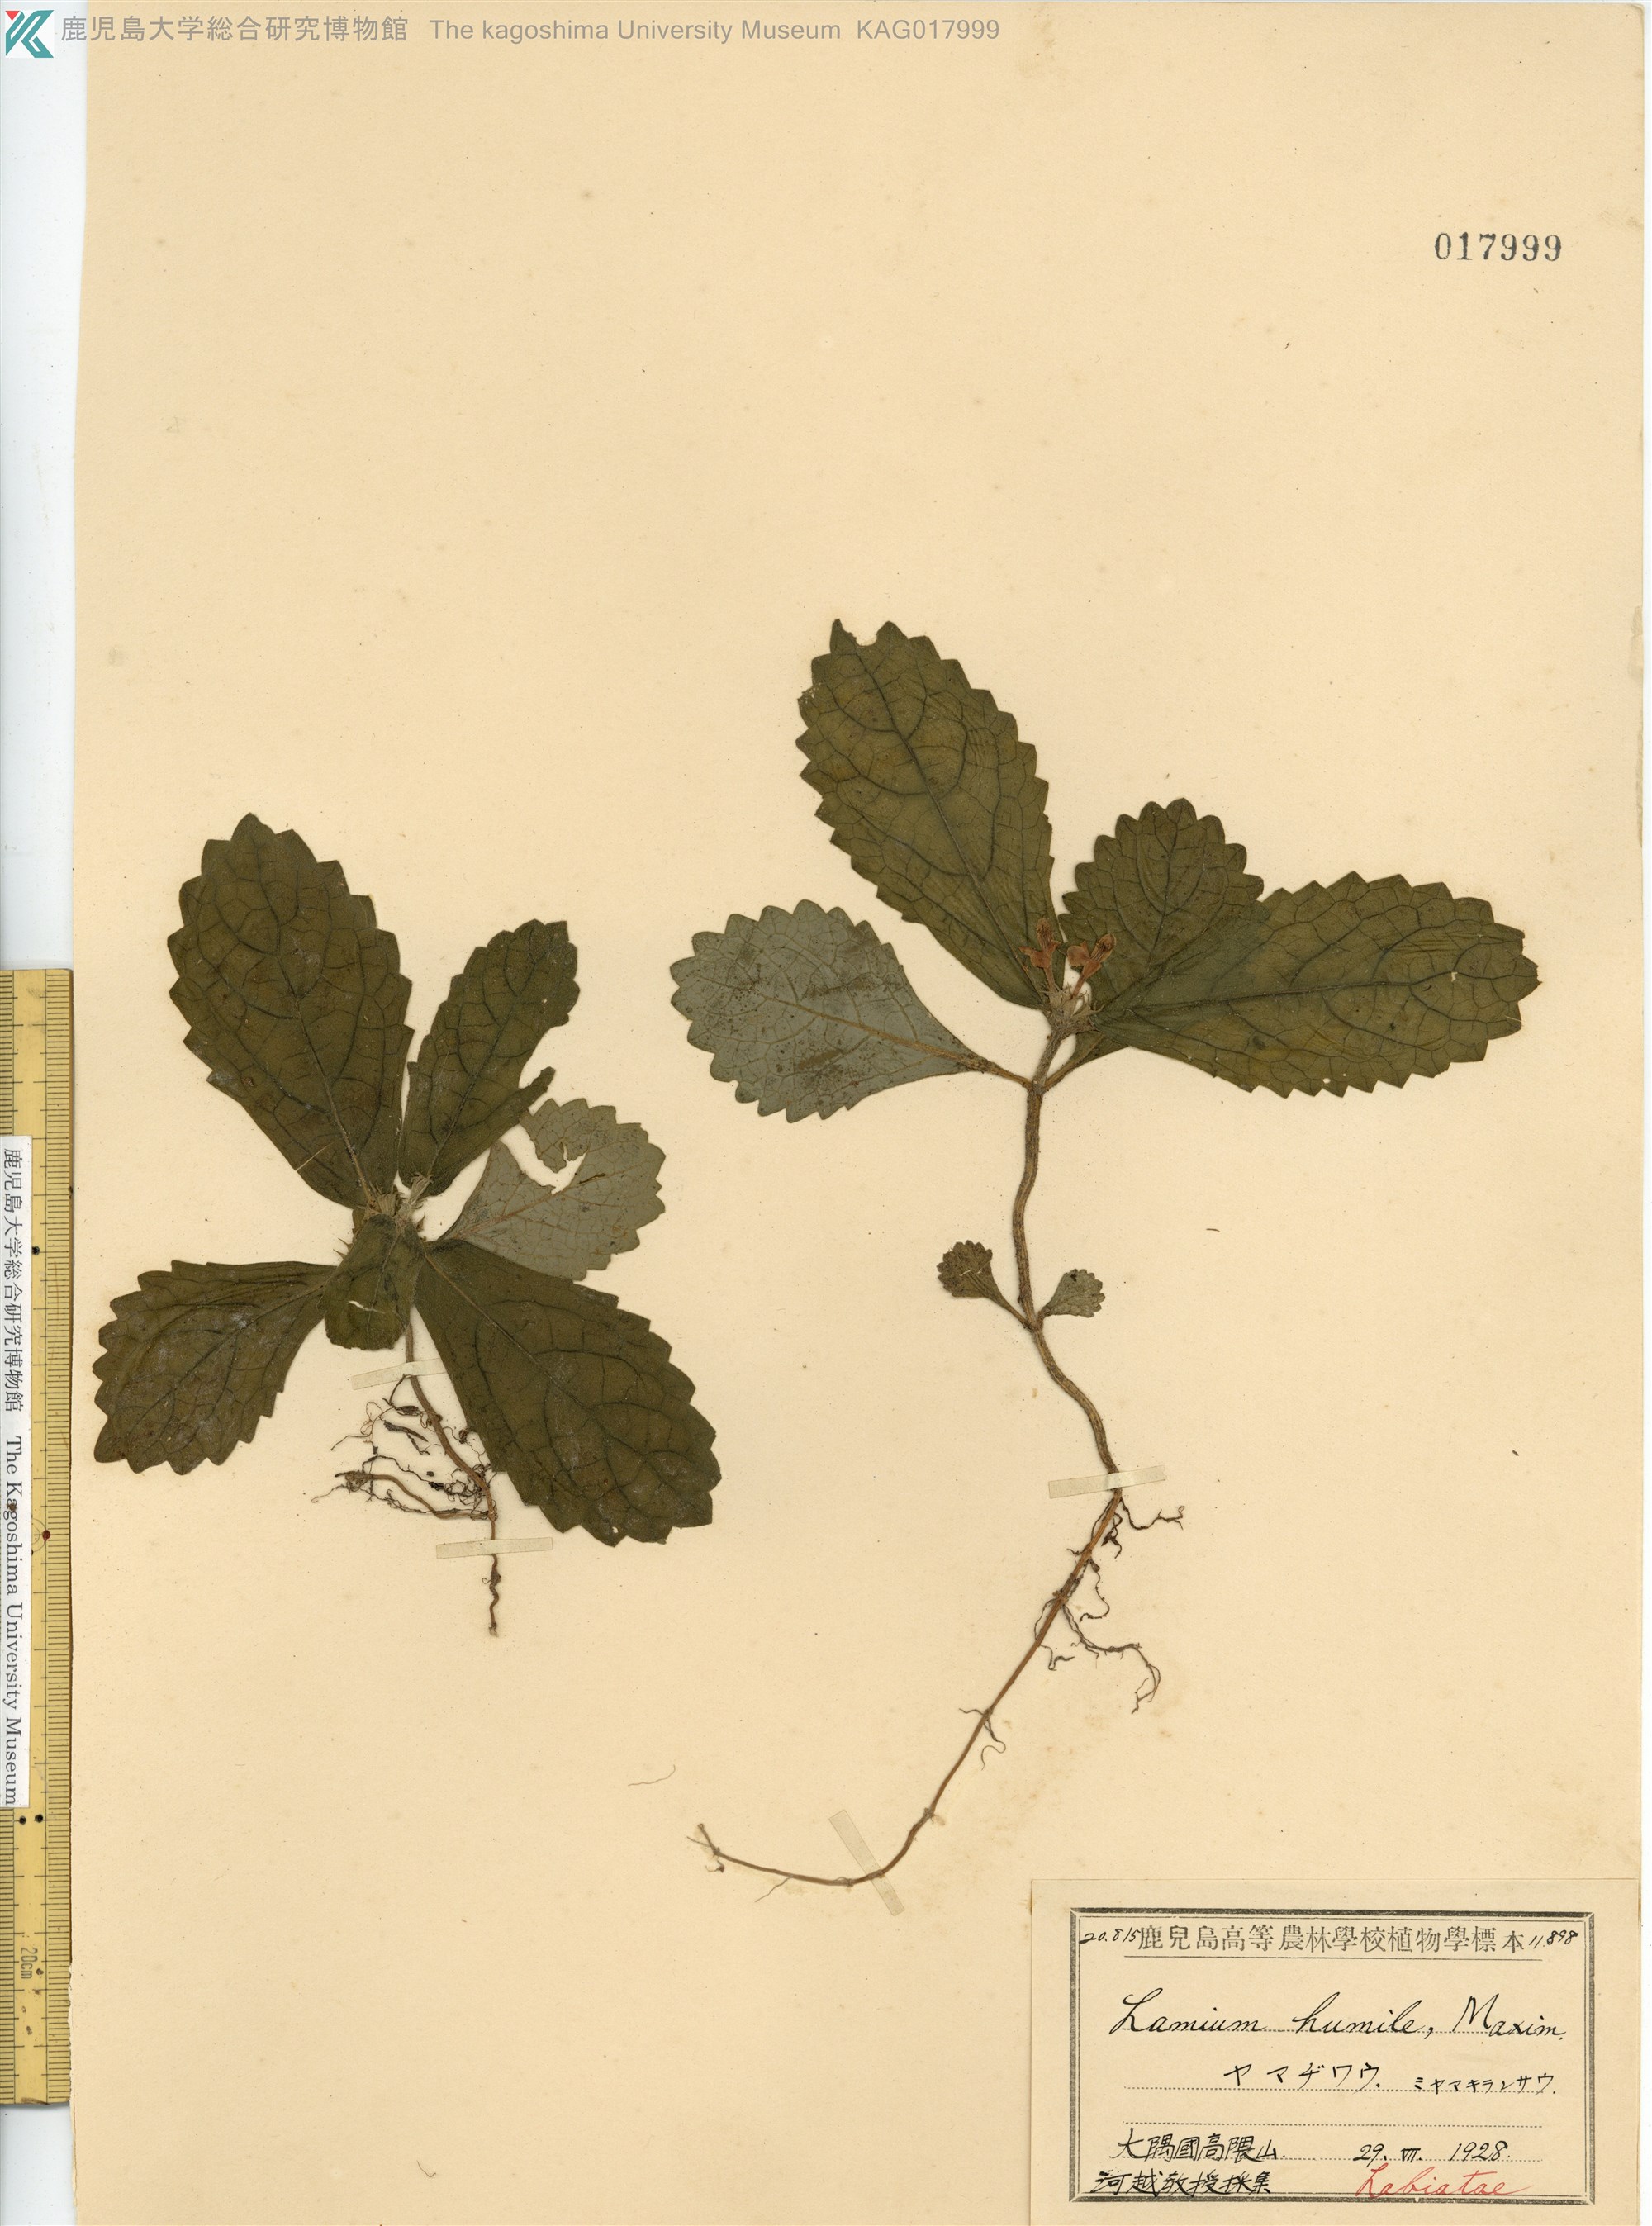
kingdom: Plantae
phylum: Tracheophyta
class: Magnoliopsida
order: Lamiales
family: Lamiaceae
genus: Ajugoides
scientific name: Ajugoides humilis
